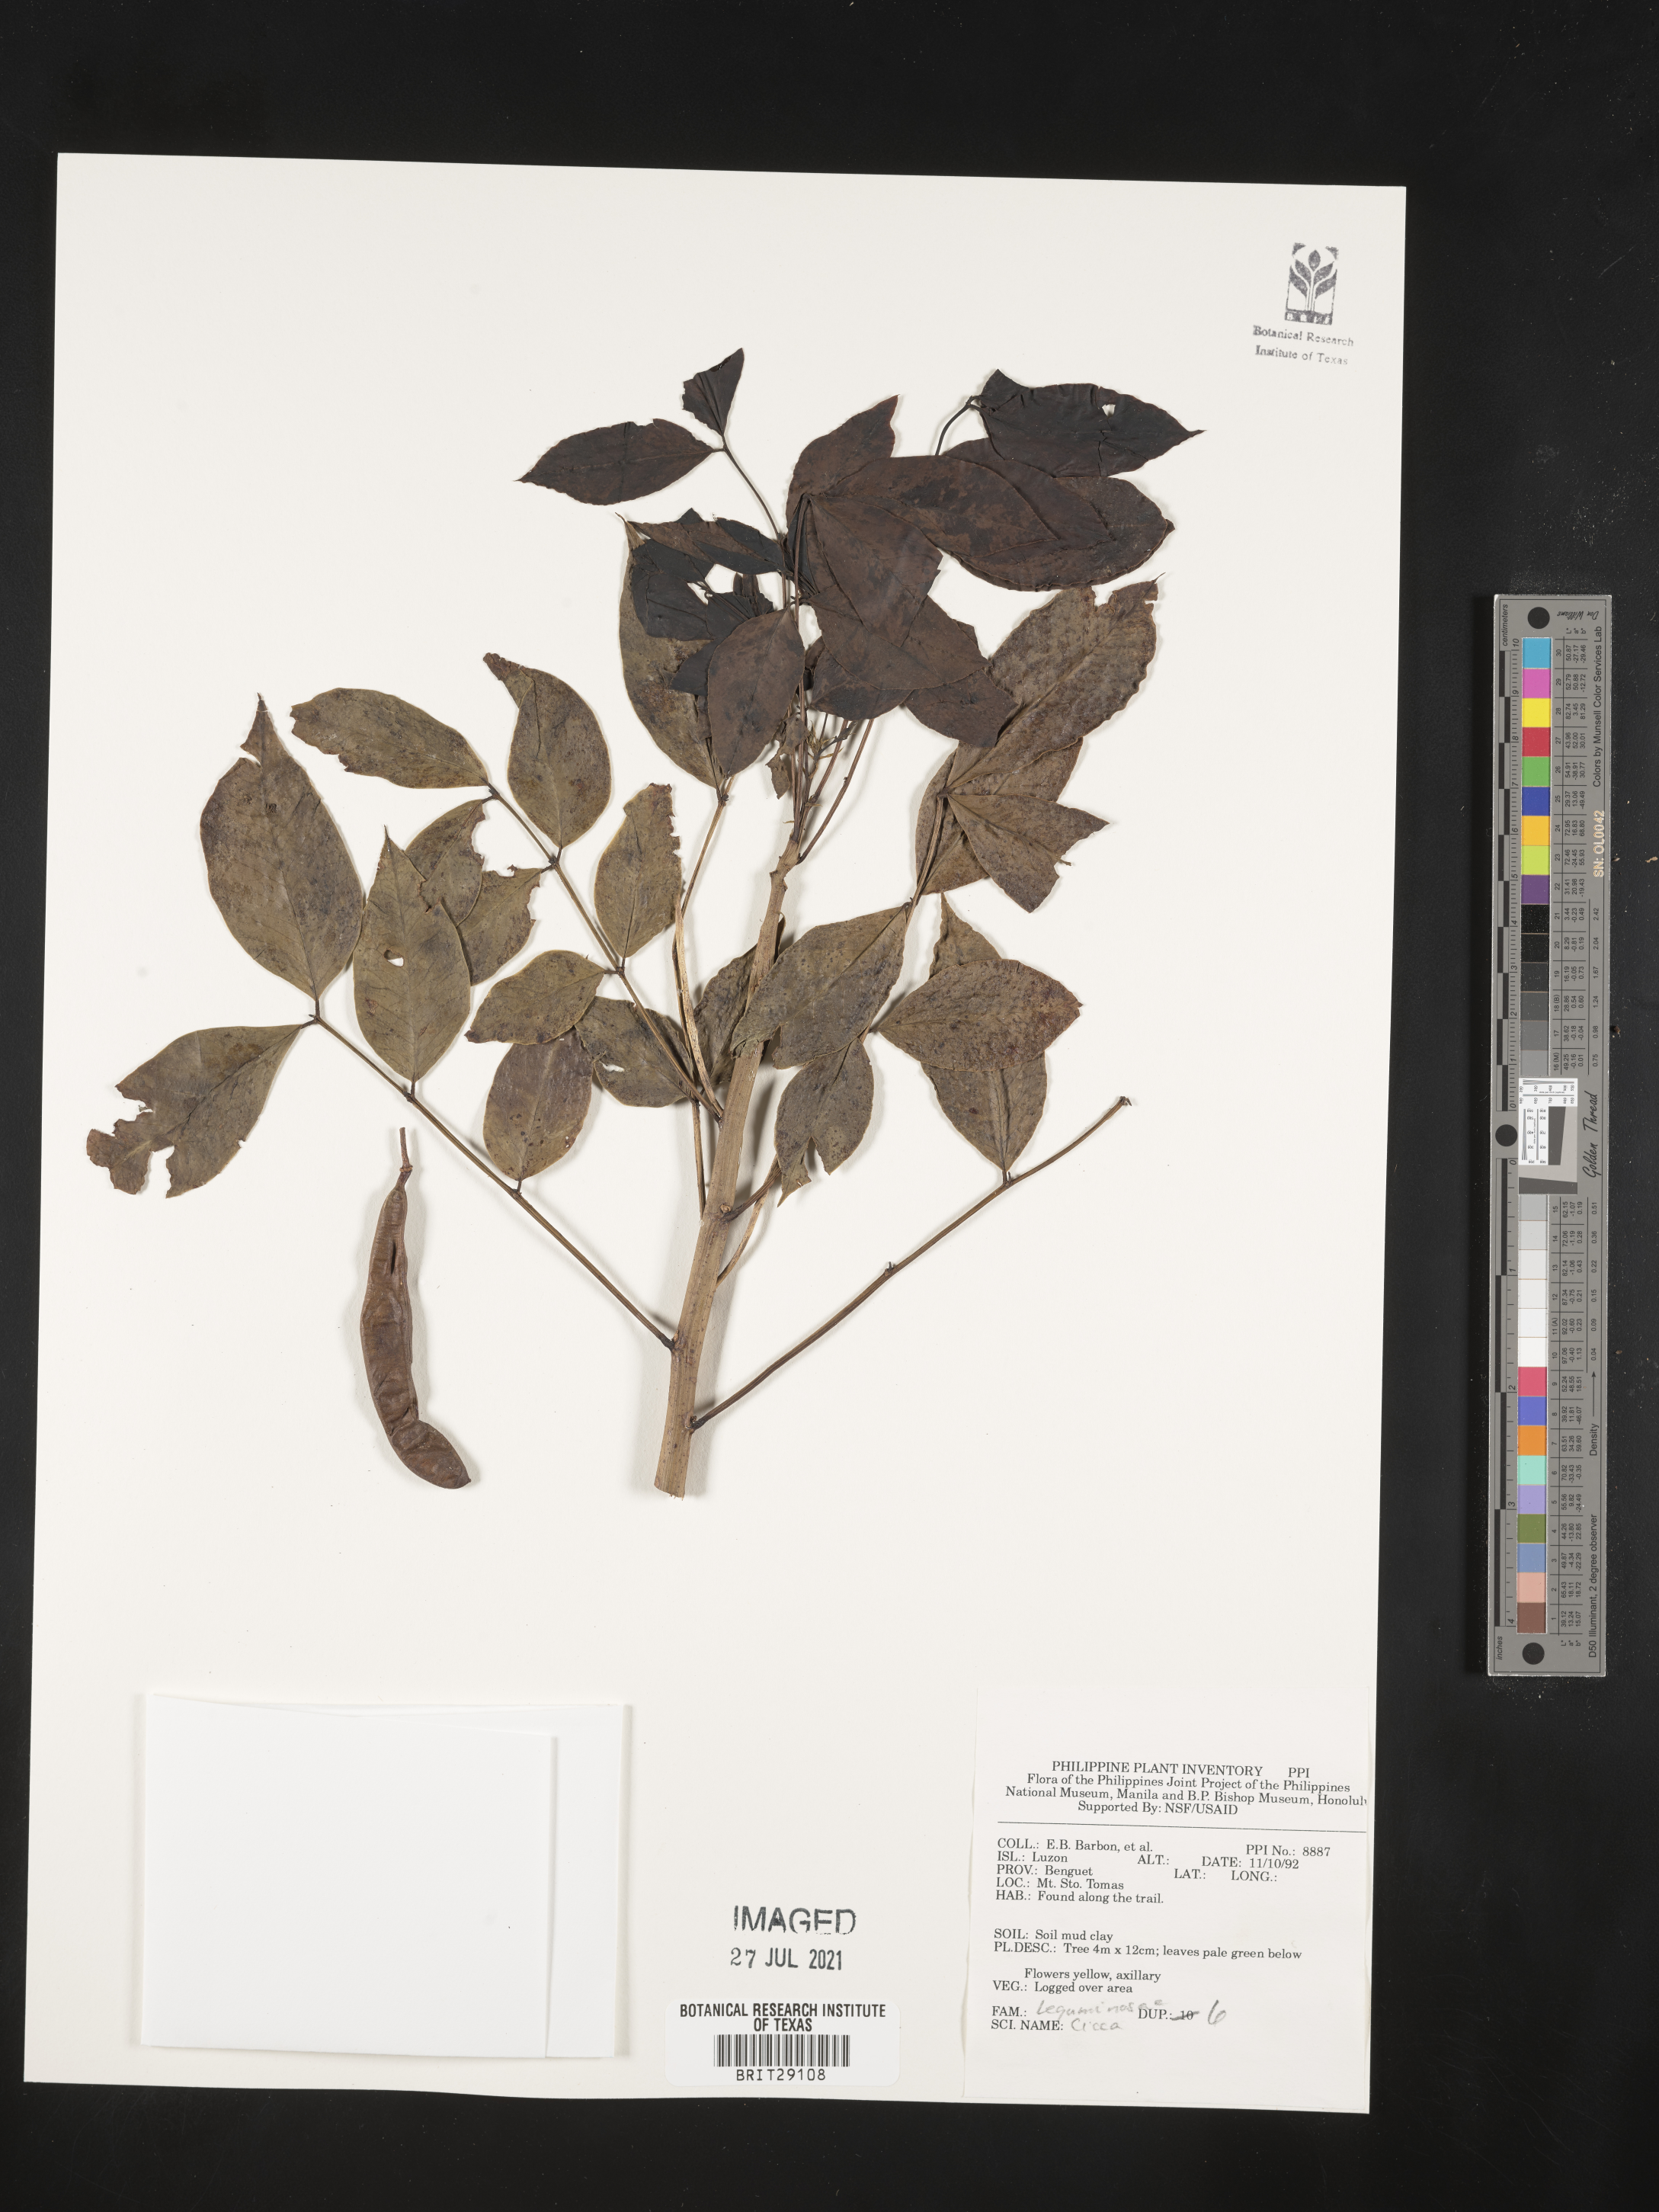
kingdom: Plantae
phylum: Tracheophyta
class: Magnoliopsida
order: Malpighiales
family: Euphorbiaceae
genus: Croton
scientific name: Croton
